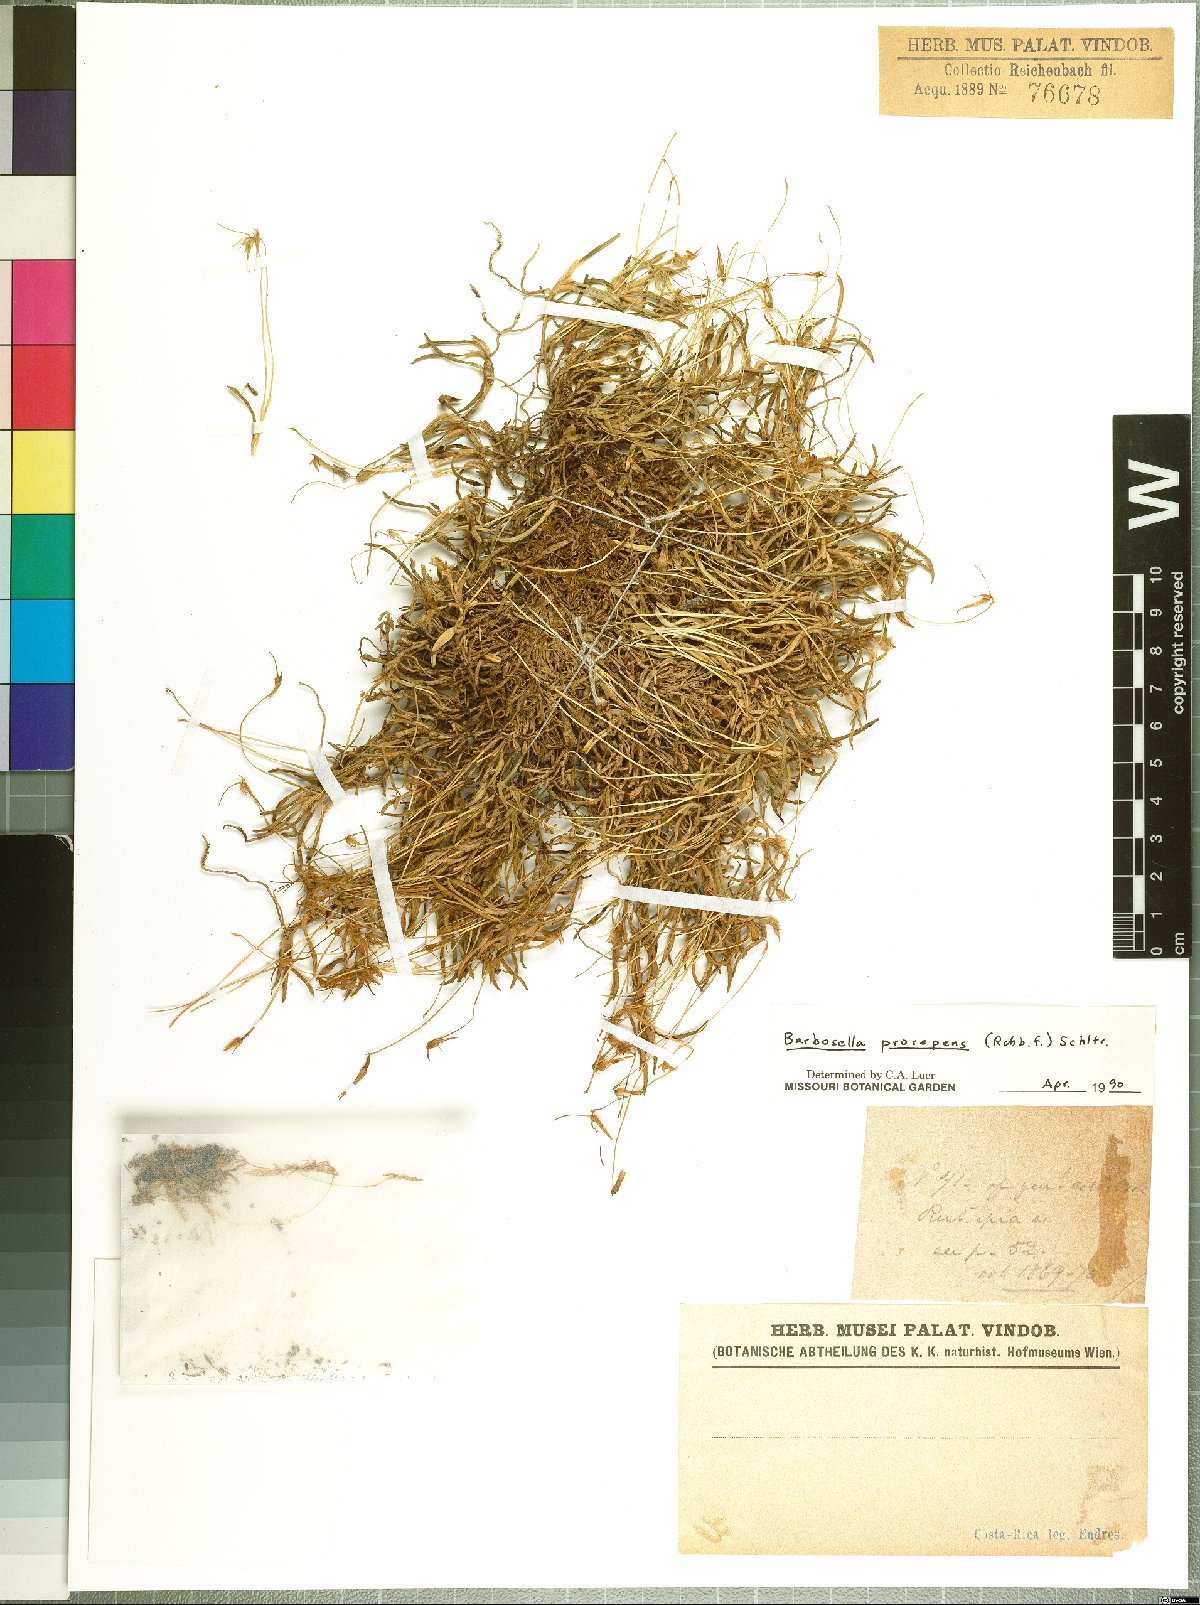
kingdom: Plantae
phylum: Tracheophyta
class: Liliopsida
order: Asparagales
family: Orchidaceae
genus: Barbosella
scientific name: Barbosella prorepens
